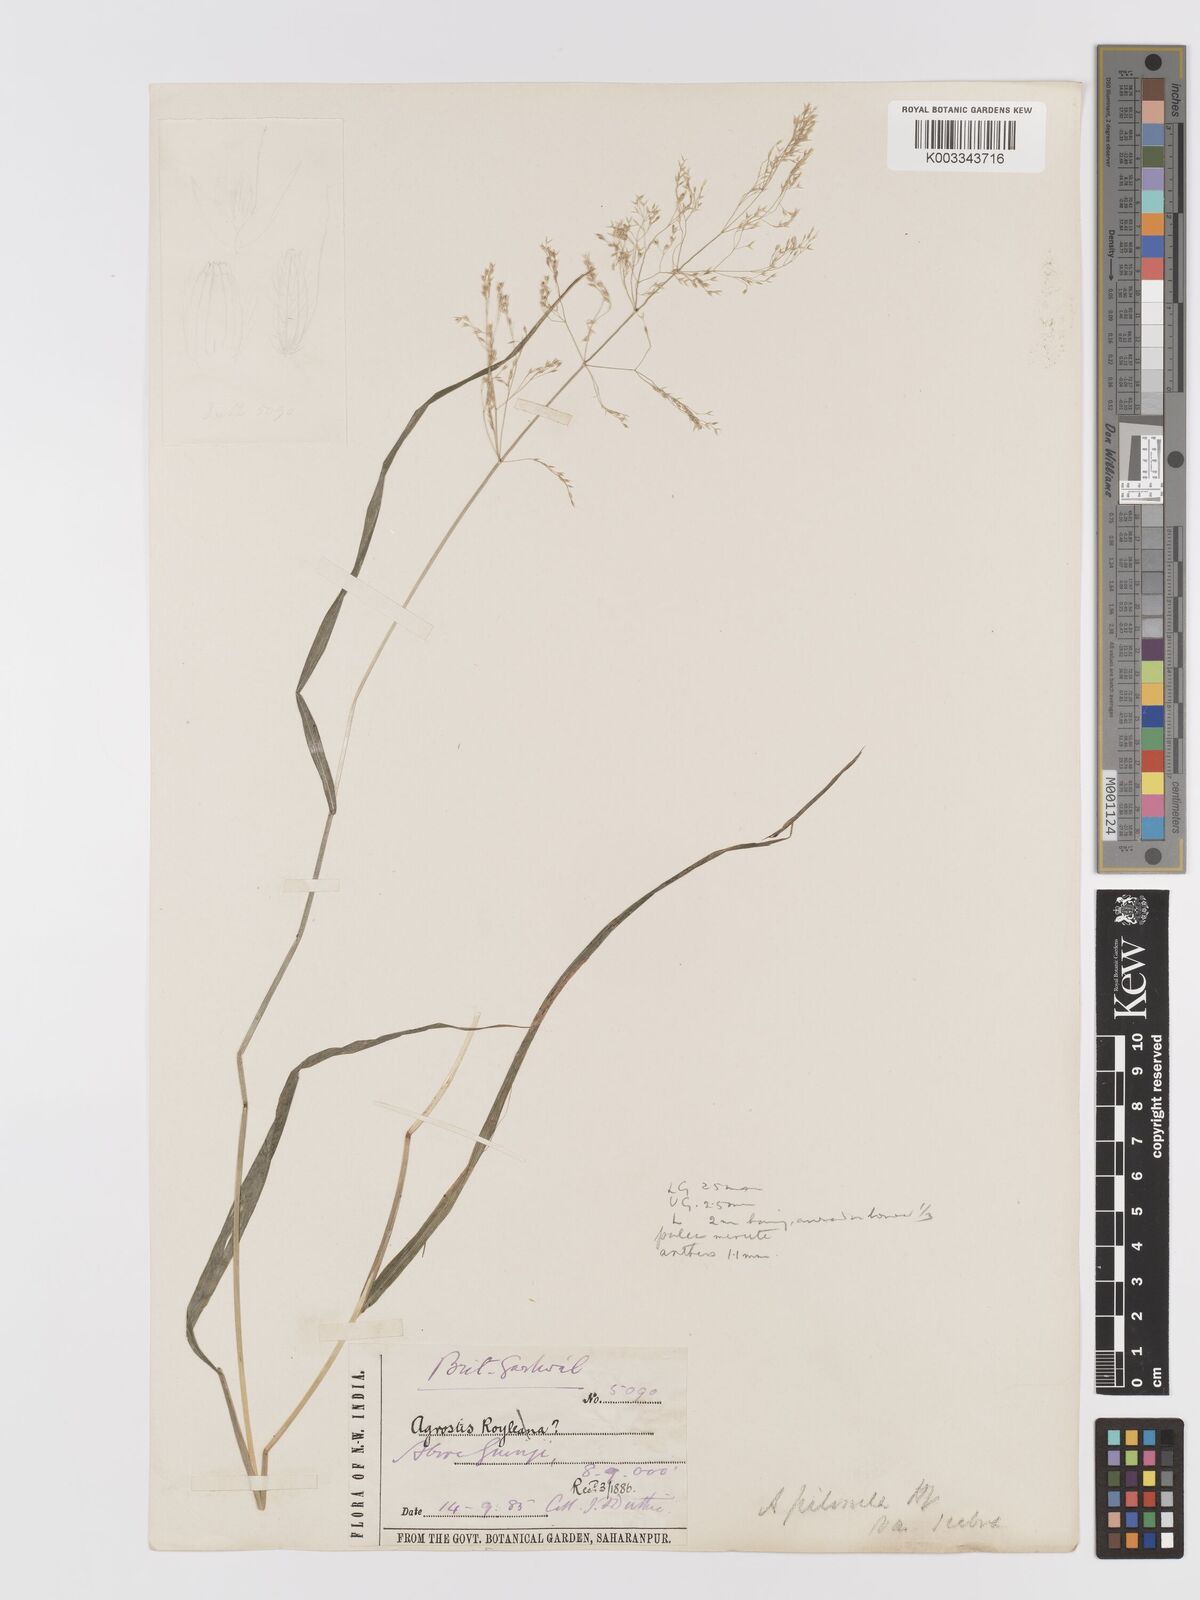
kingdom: Plantae
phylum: Tracheophyta
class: Liliopsida
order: Poales
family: Poaceae
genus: Agrostis
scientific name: Agrostis pilosula
